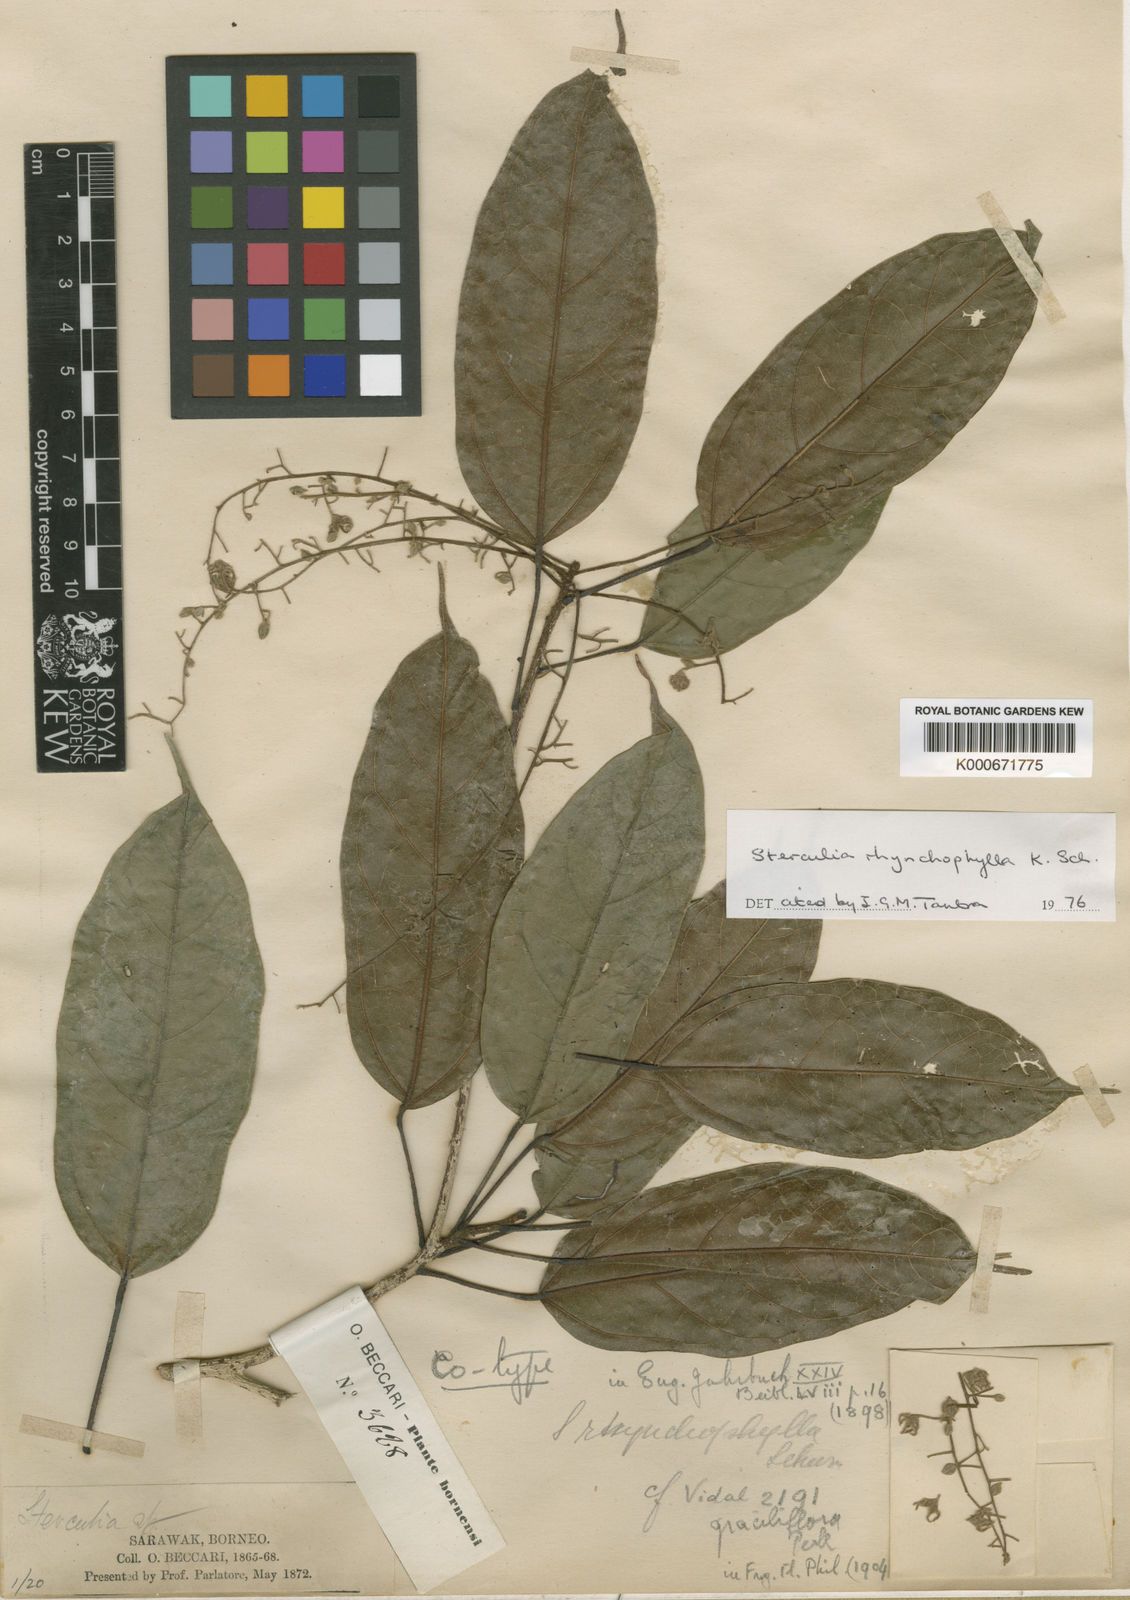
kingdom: Plantae
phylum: Tracheophyta
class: Magnoliopsida
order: Malvales
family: Malvaceae
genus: Sterculia
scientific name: Sterculia rhynchophylla
